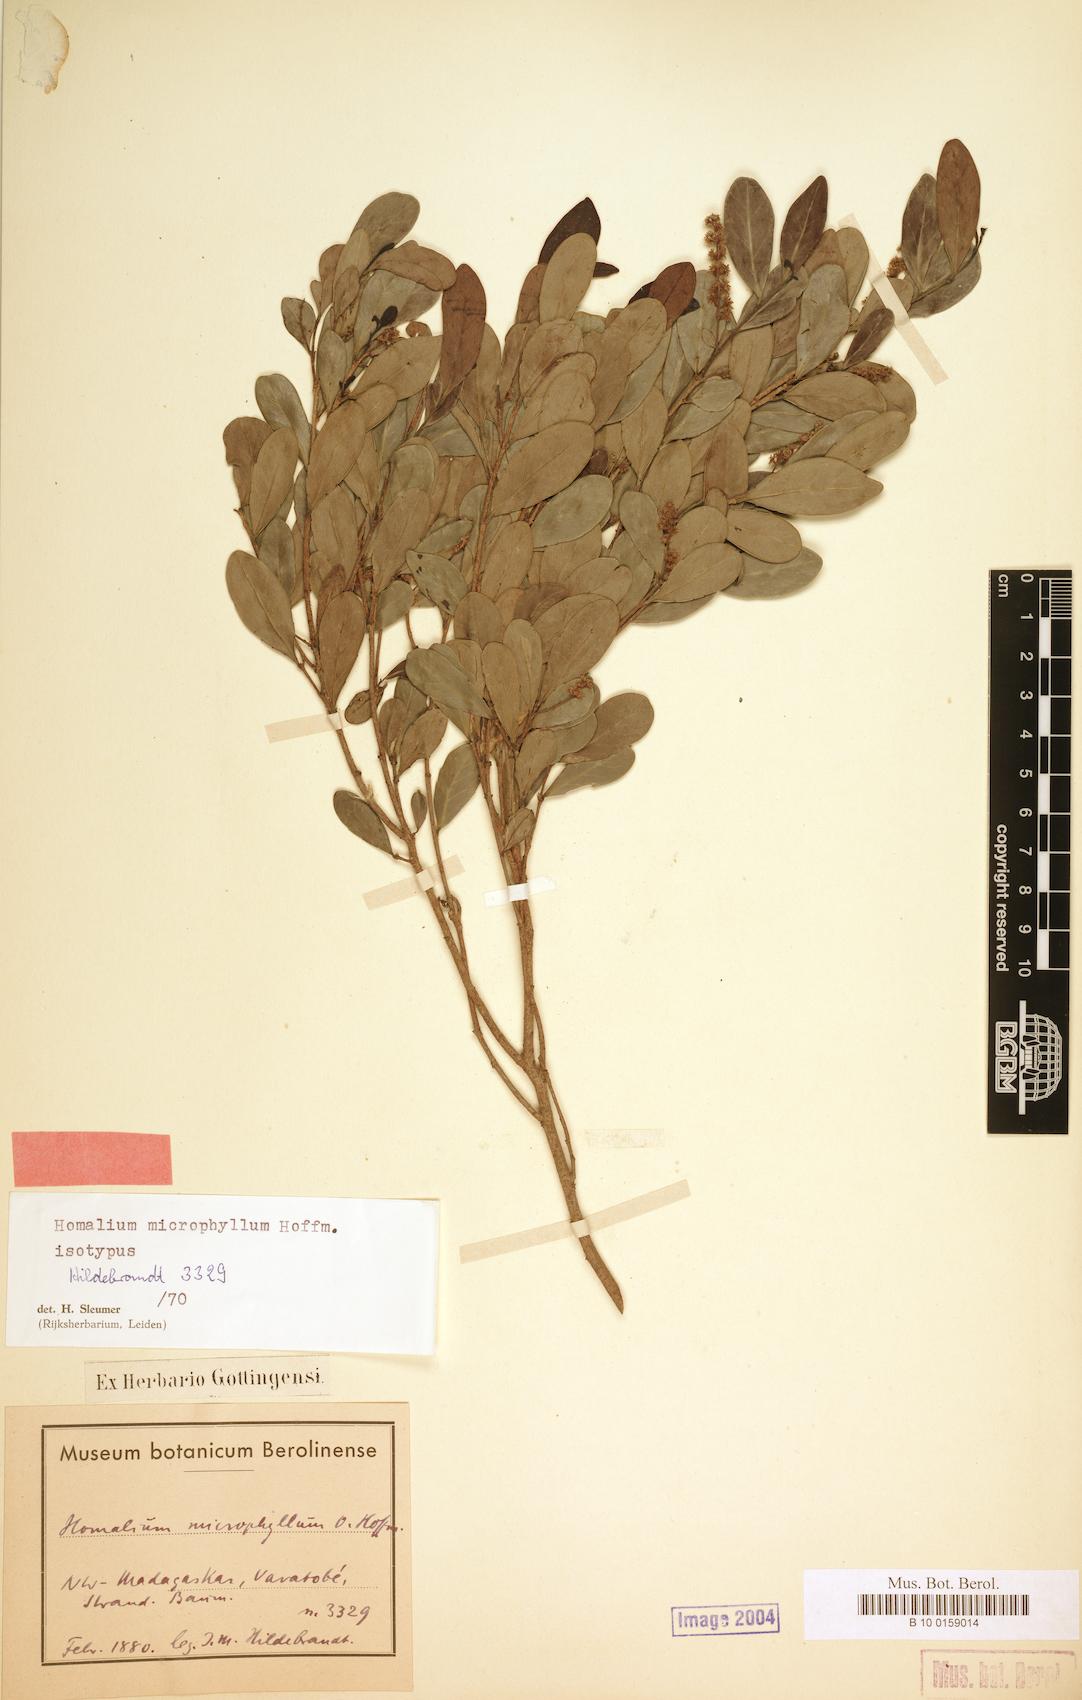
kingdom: Plantae
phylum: Tracheophyta
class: Magnoliopsida
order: Malpighiales
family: Salicaceae
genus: Homalium
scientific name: Homalium microphyllum
